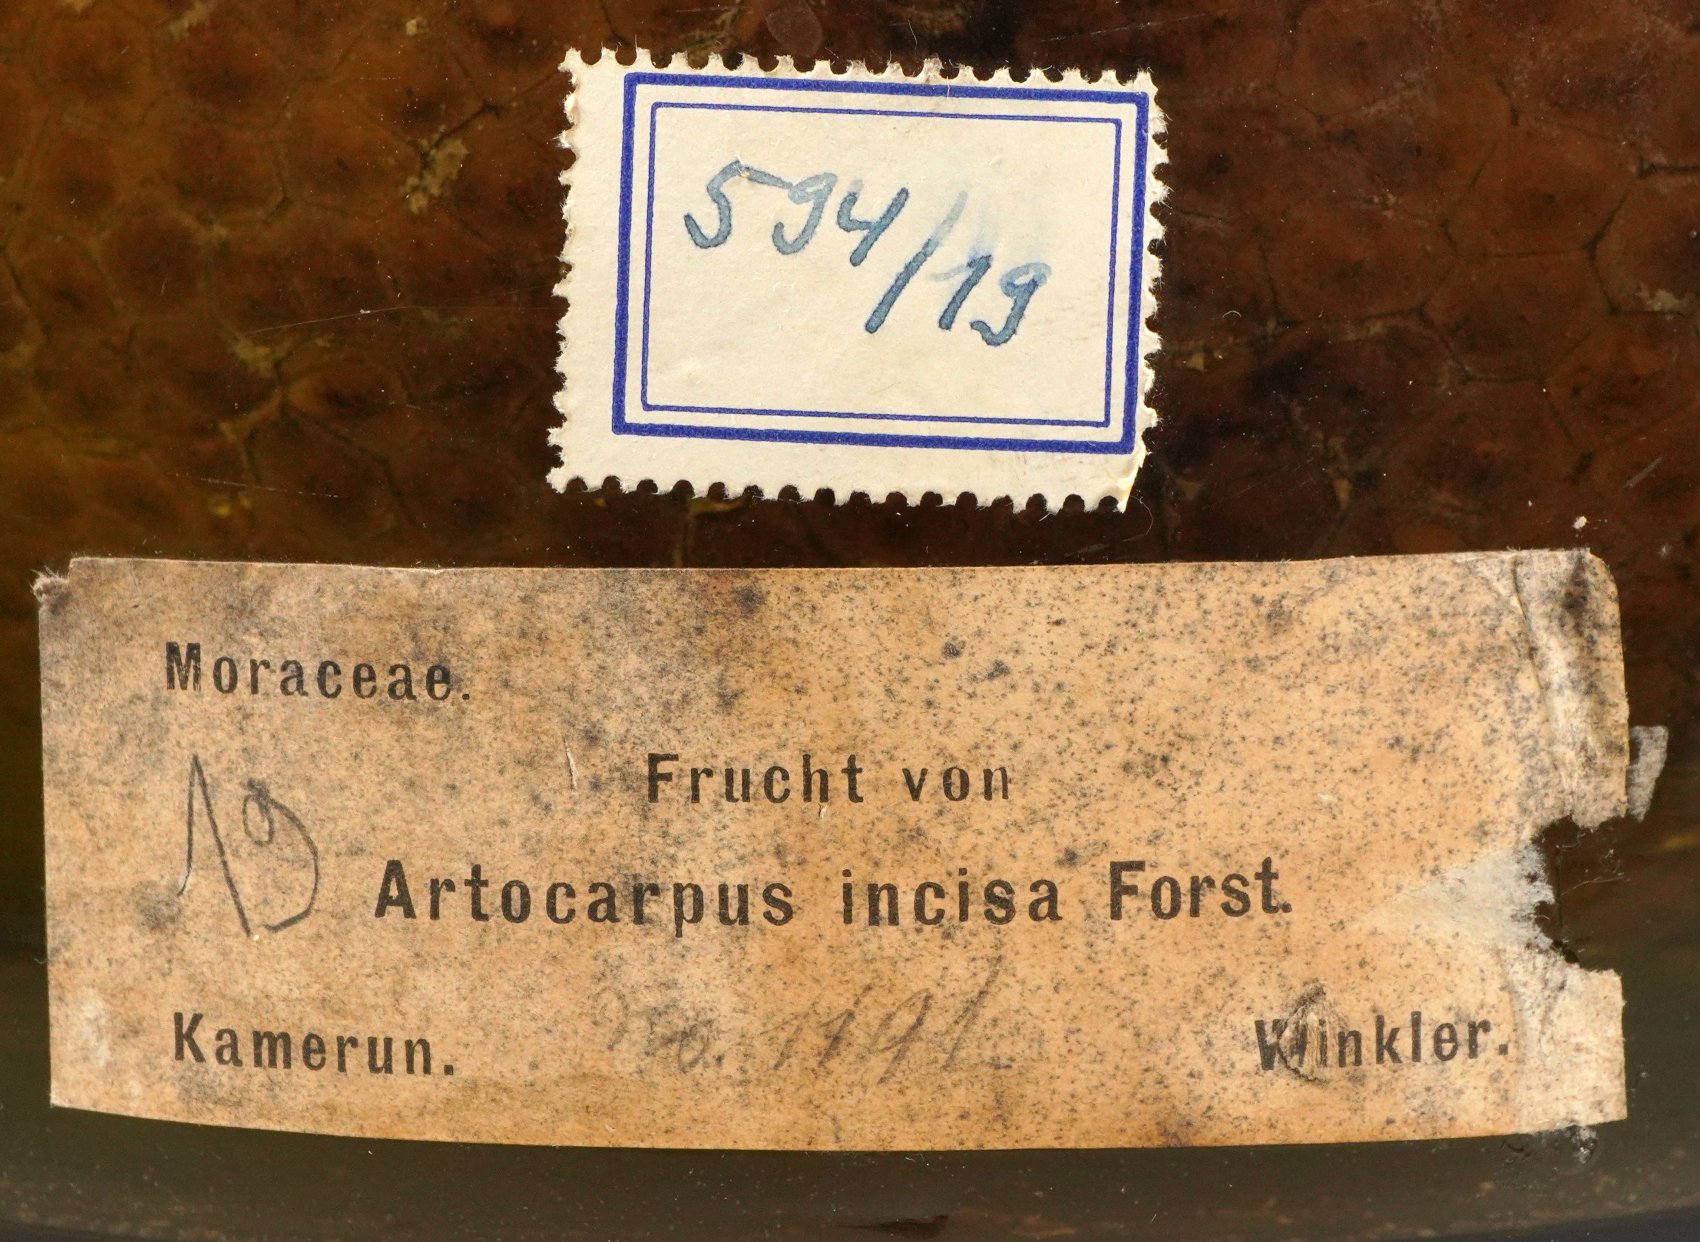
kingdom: Plantae
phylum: Tracheophyta
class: Magnoliopsida
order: Rosales
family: Moraceae
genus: Artocarpus
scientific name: Artocarpus altilis
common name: Breadfruit
